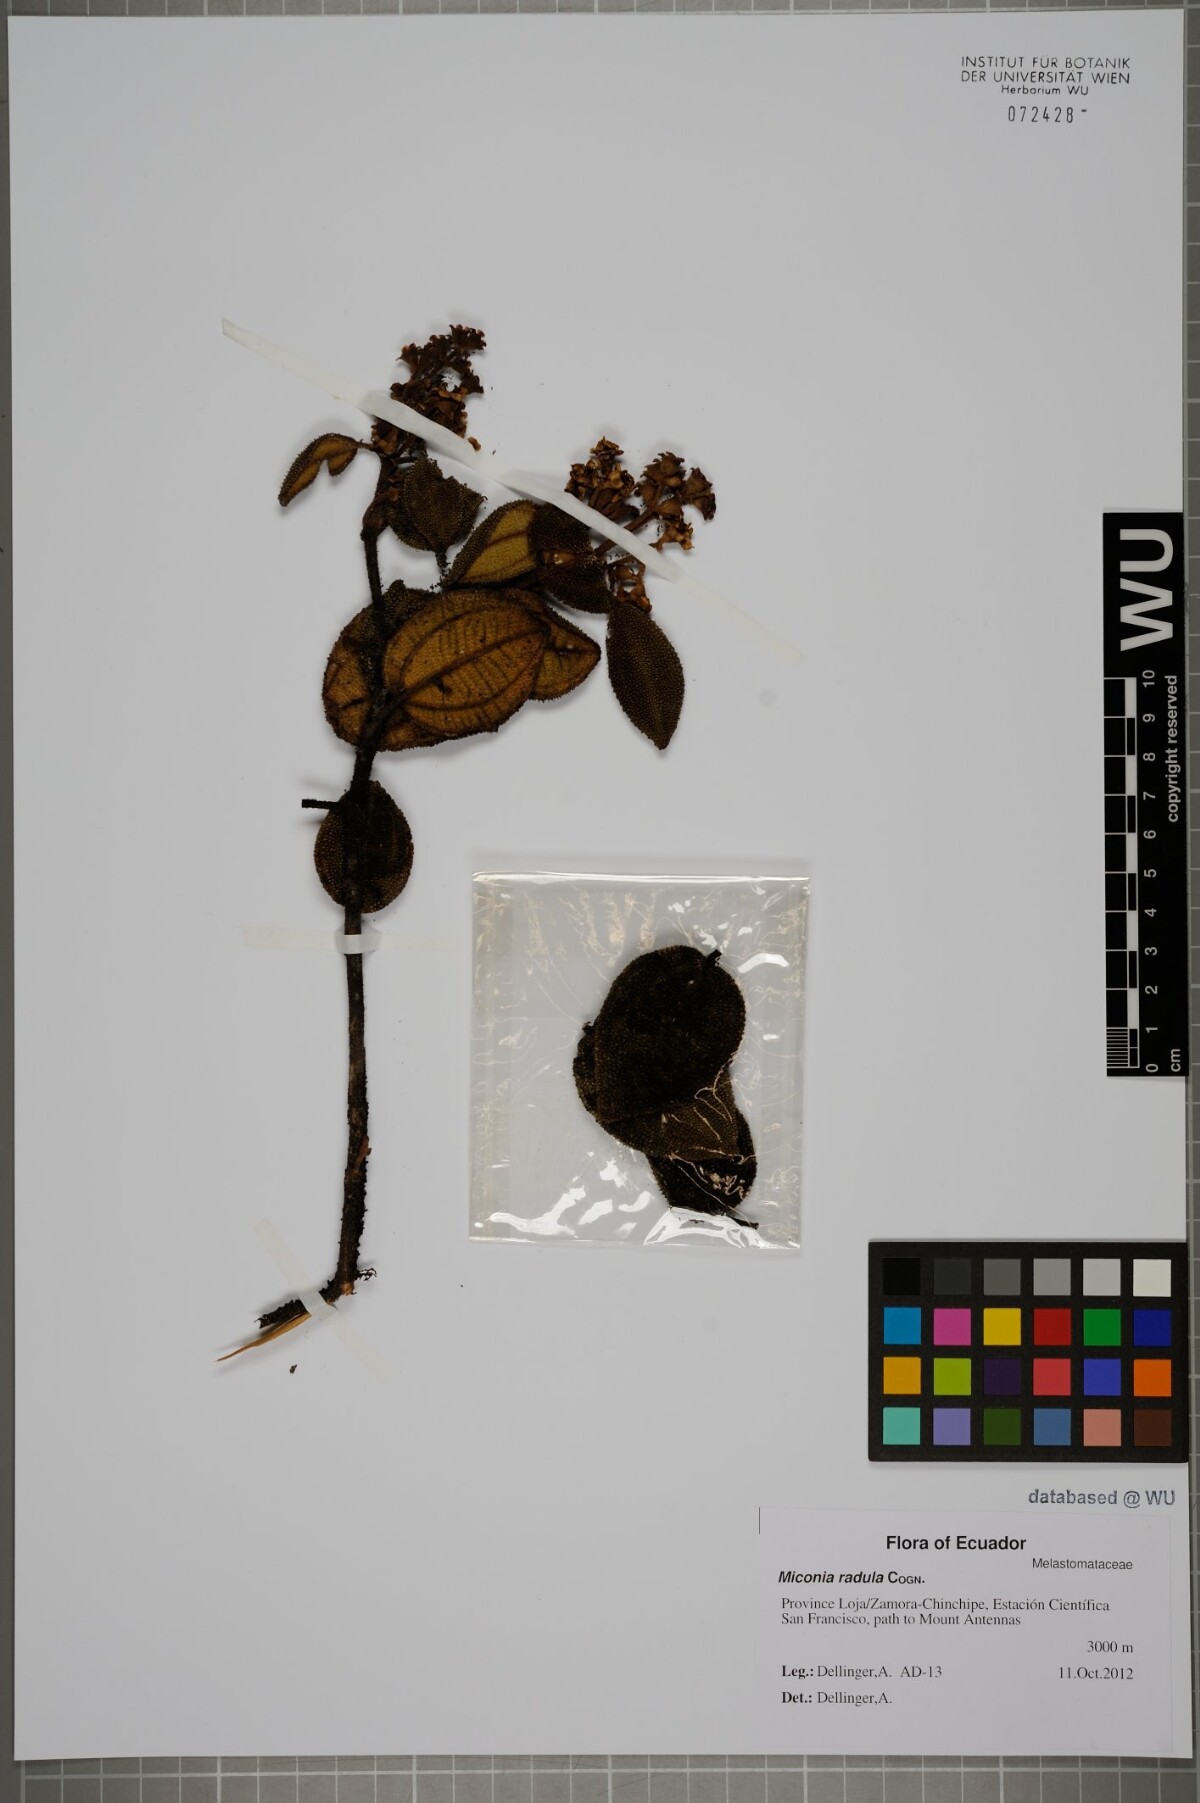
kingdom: Plantae
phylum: Tracheophyta
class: Magnoliopsida
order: Myrtales
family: Melastomataceae
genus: Miconia
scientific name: Miconia radula
